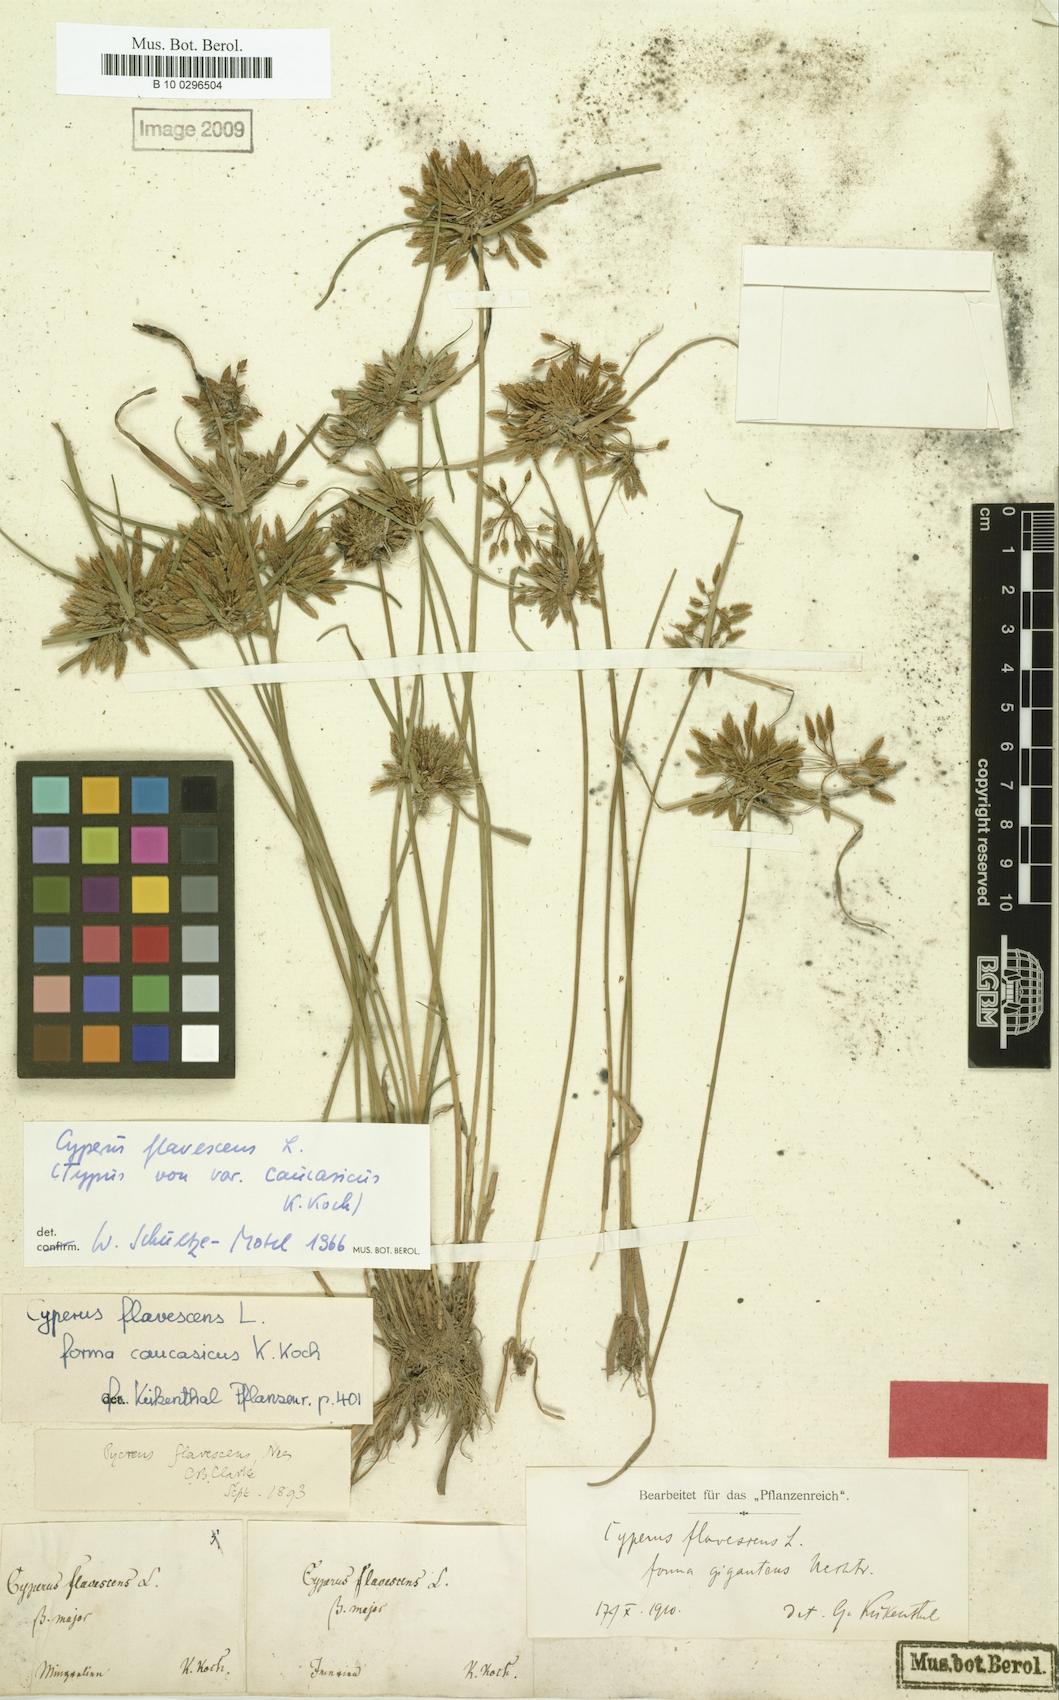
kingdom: Plantae
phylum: Tracheophyta
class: Liliopsida
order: Poales
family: Cyperaceae
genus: Cyperus
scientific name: Cyperus flavescens
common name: Yellow galingale
